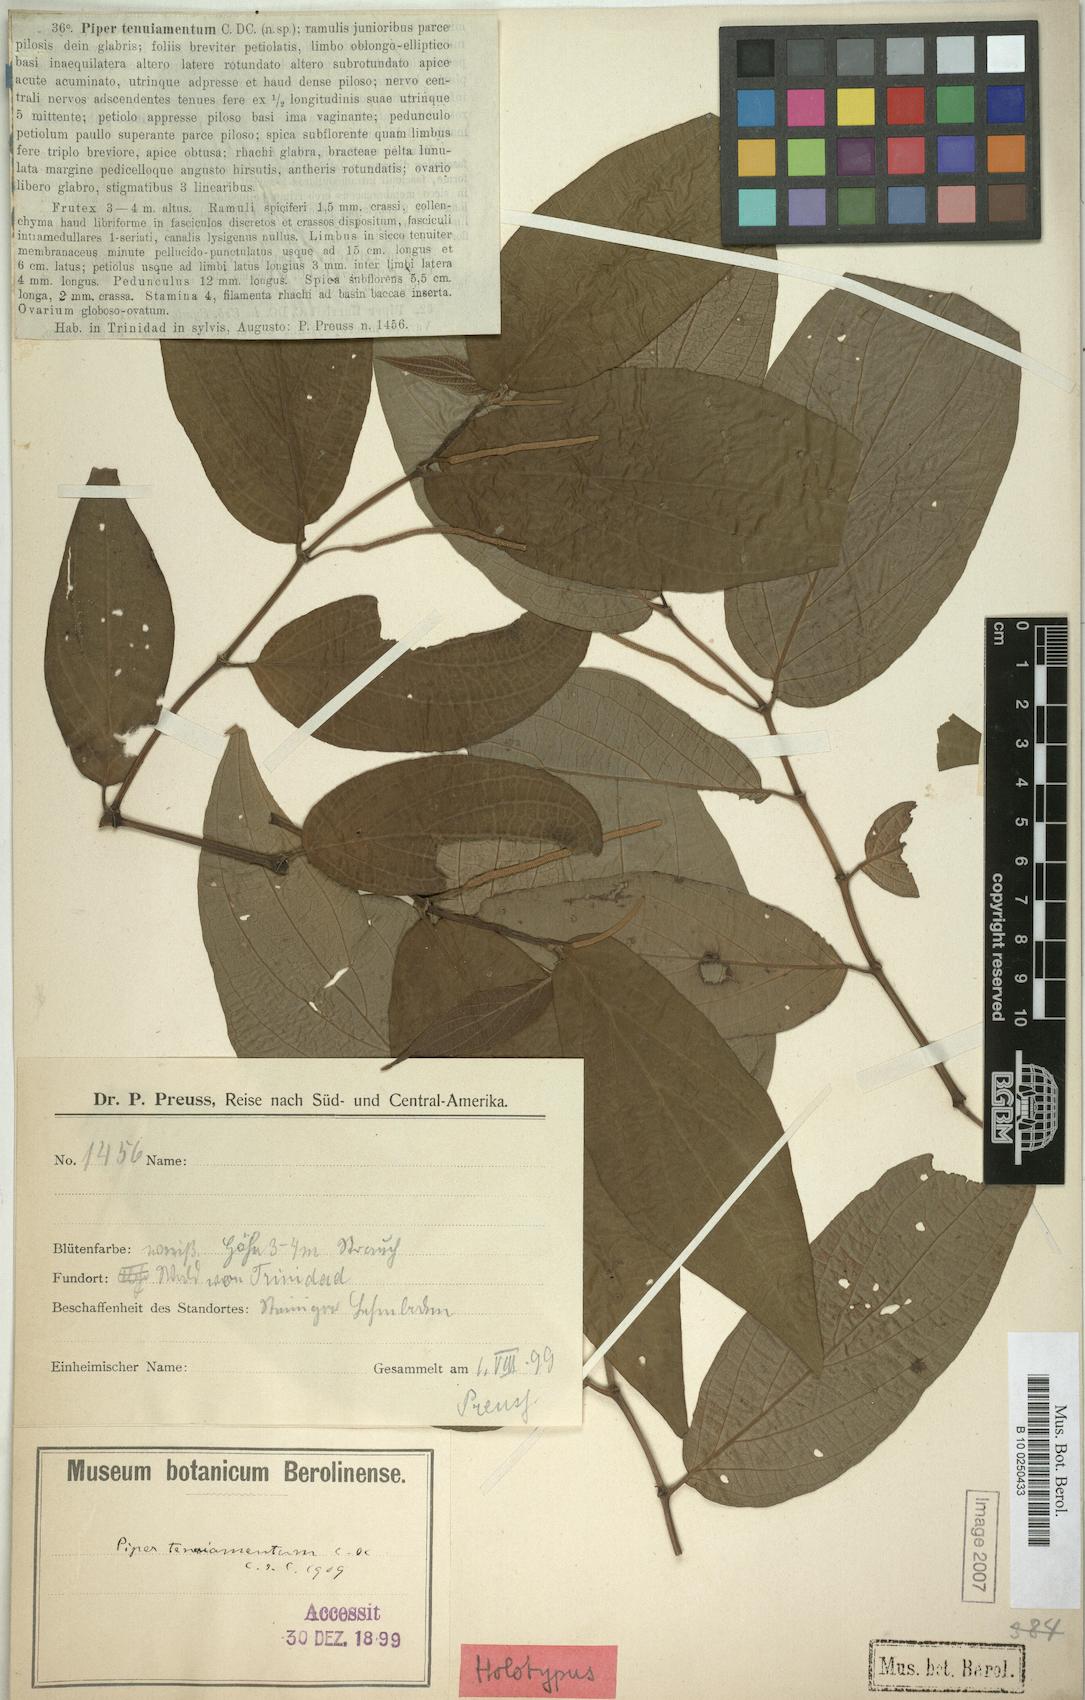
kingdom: Plantae
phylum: Tracheophyta
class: Magnoliopsida
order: Piperales
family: Piperaceae
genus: Piper
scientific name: Piper dilatatum
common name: Higuillo
